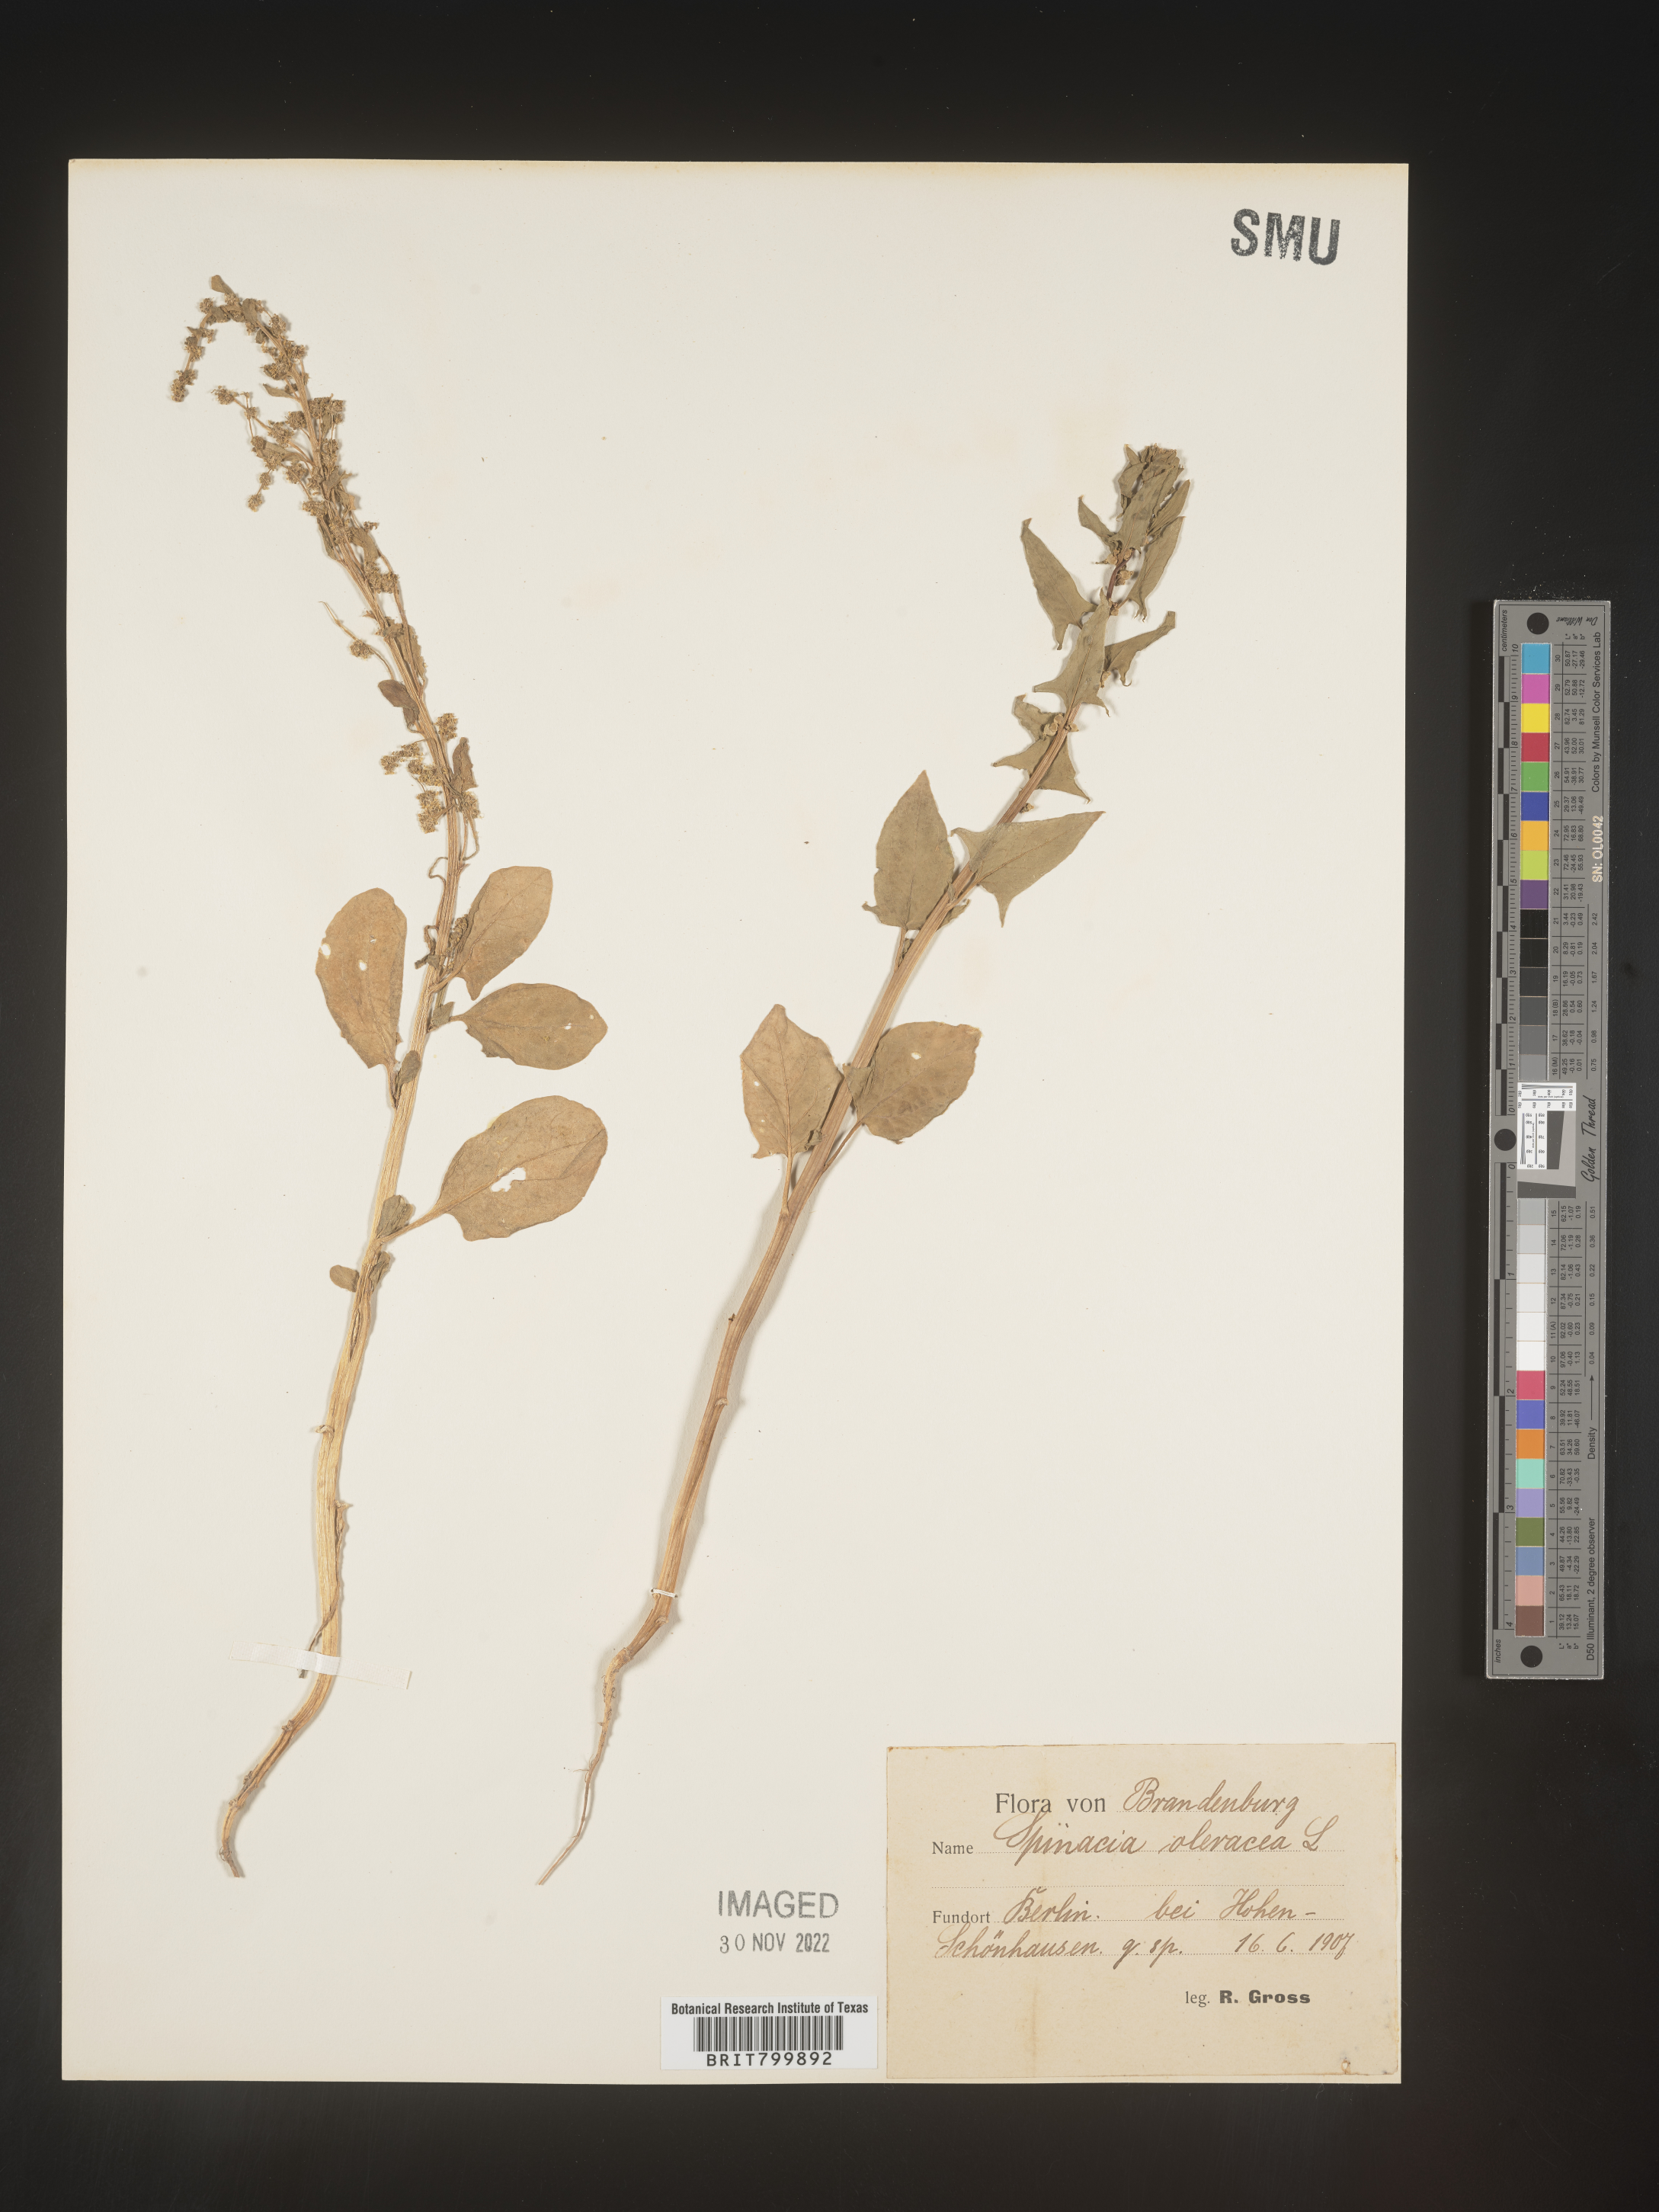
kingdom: Plantae
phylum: Tracheophyta
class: Magnoliopsida
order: Caryophyllales
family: Amaranthaceae
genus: Spinacia
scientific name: Spinacia
